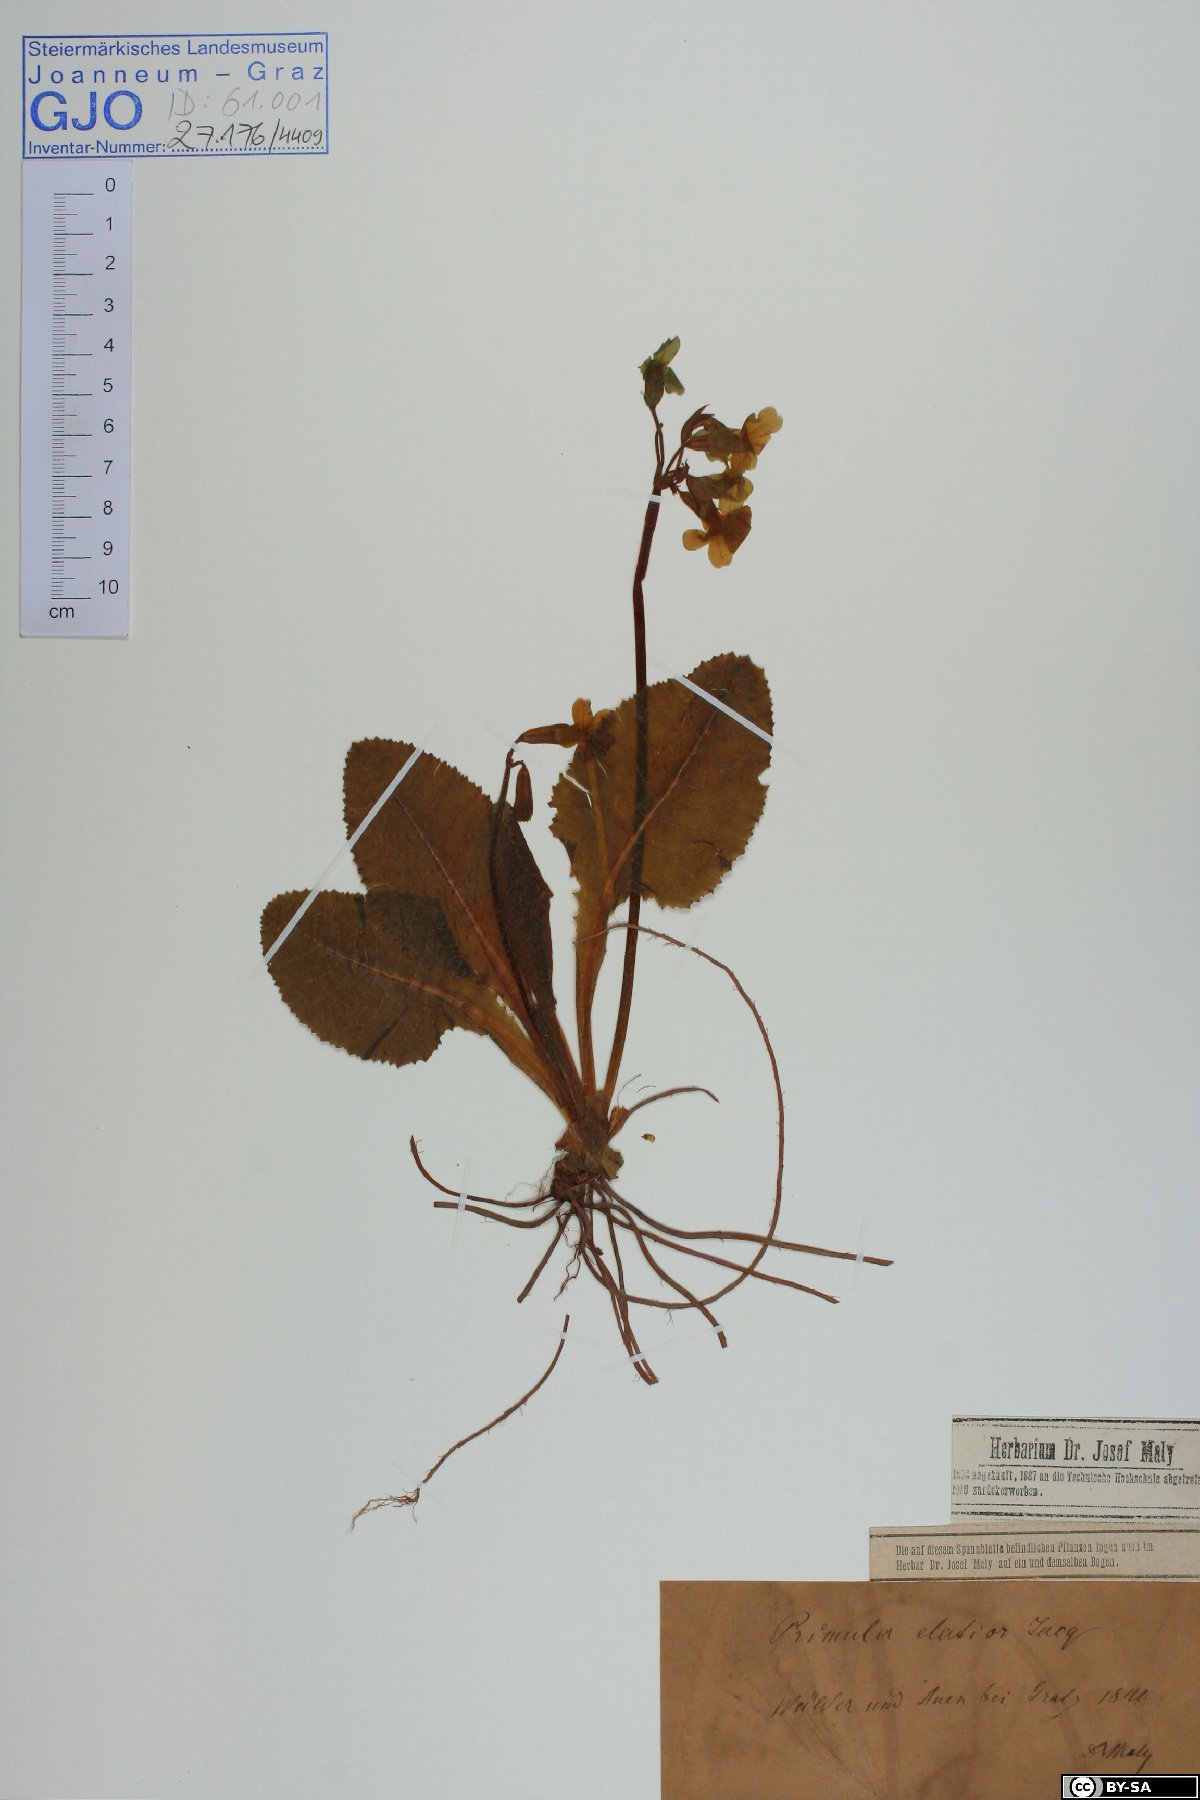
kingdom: Plantae
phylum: Tracheophyta
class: Magnoliopsida
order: Ericales
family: Primulaceae
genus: Primula
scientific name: Primula elatior
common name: Oxlip
